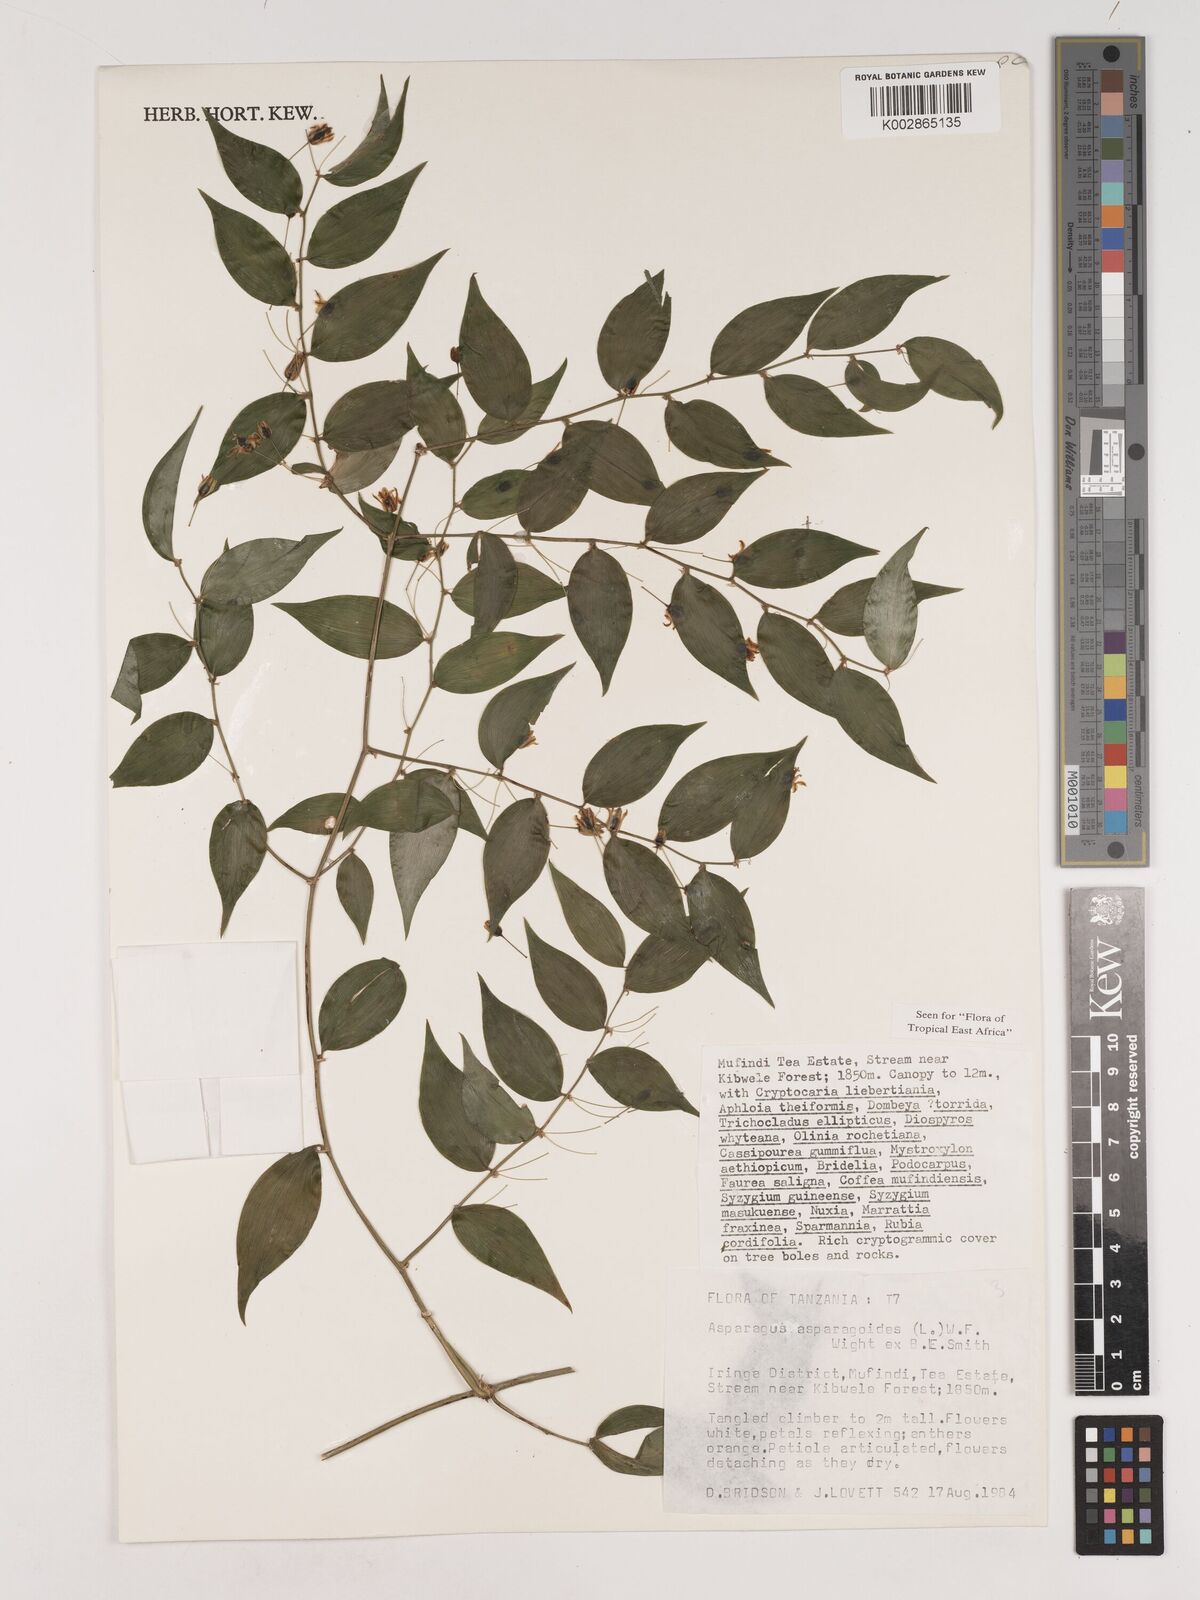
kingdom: Plantae
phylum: Tracheophyta
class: Liliopsida
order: Asparagales
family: Asparagaceae
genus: Asparagus
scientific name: Asparagus asparagoides
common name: African asparagus fern
